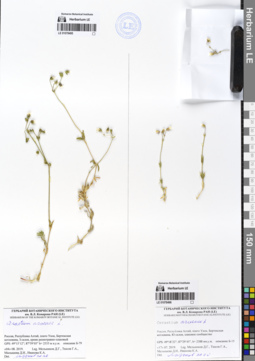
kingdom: Plantae
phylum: Tracheophyta
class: Magnoliopsida
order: Caryophyllales
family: Caryophyllaceae
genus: Cerastium
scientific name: Cerastium arvense
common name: Field mouse-ear
